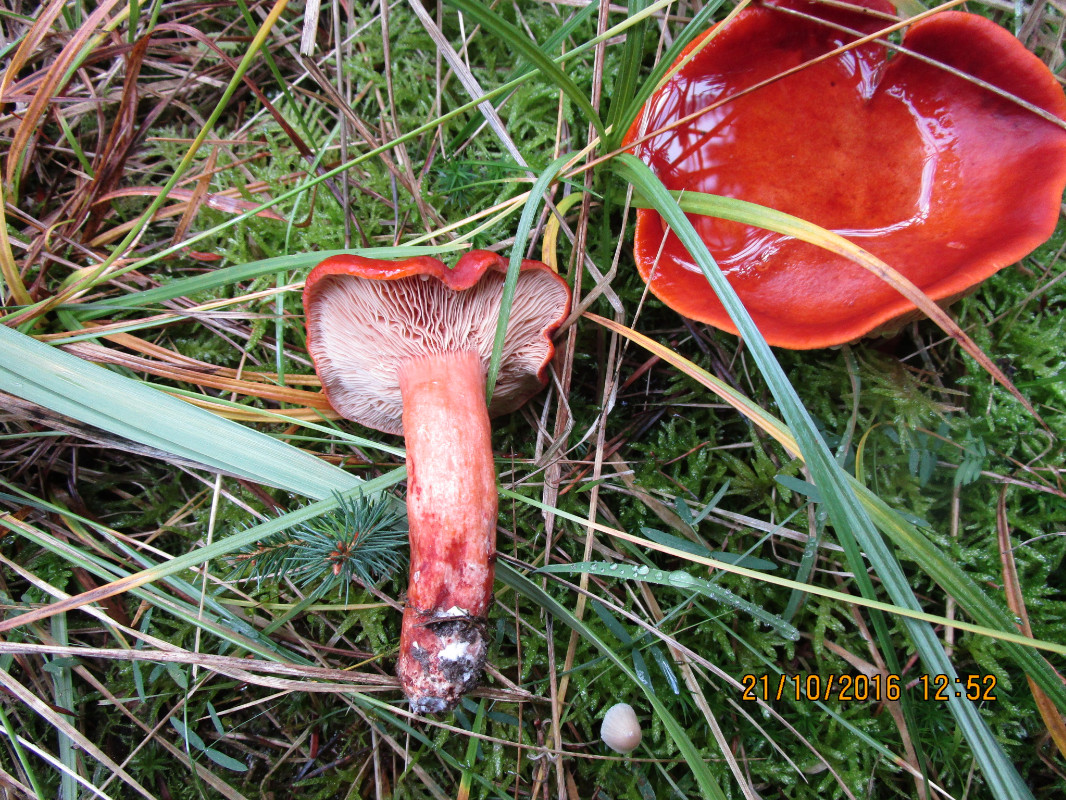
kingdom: Fungi
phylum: Basidiomycota
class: Agaricomycetes
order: Russulales
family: Russulaceae
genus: Lactarius
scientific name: Lactarius fulvissimus
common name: ræve-mælkehat
